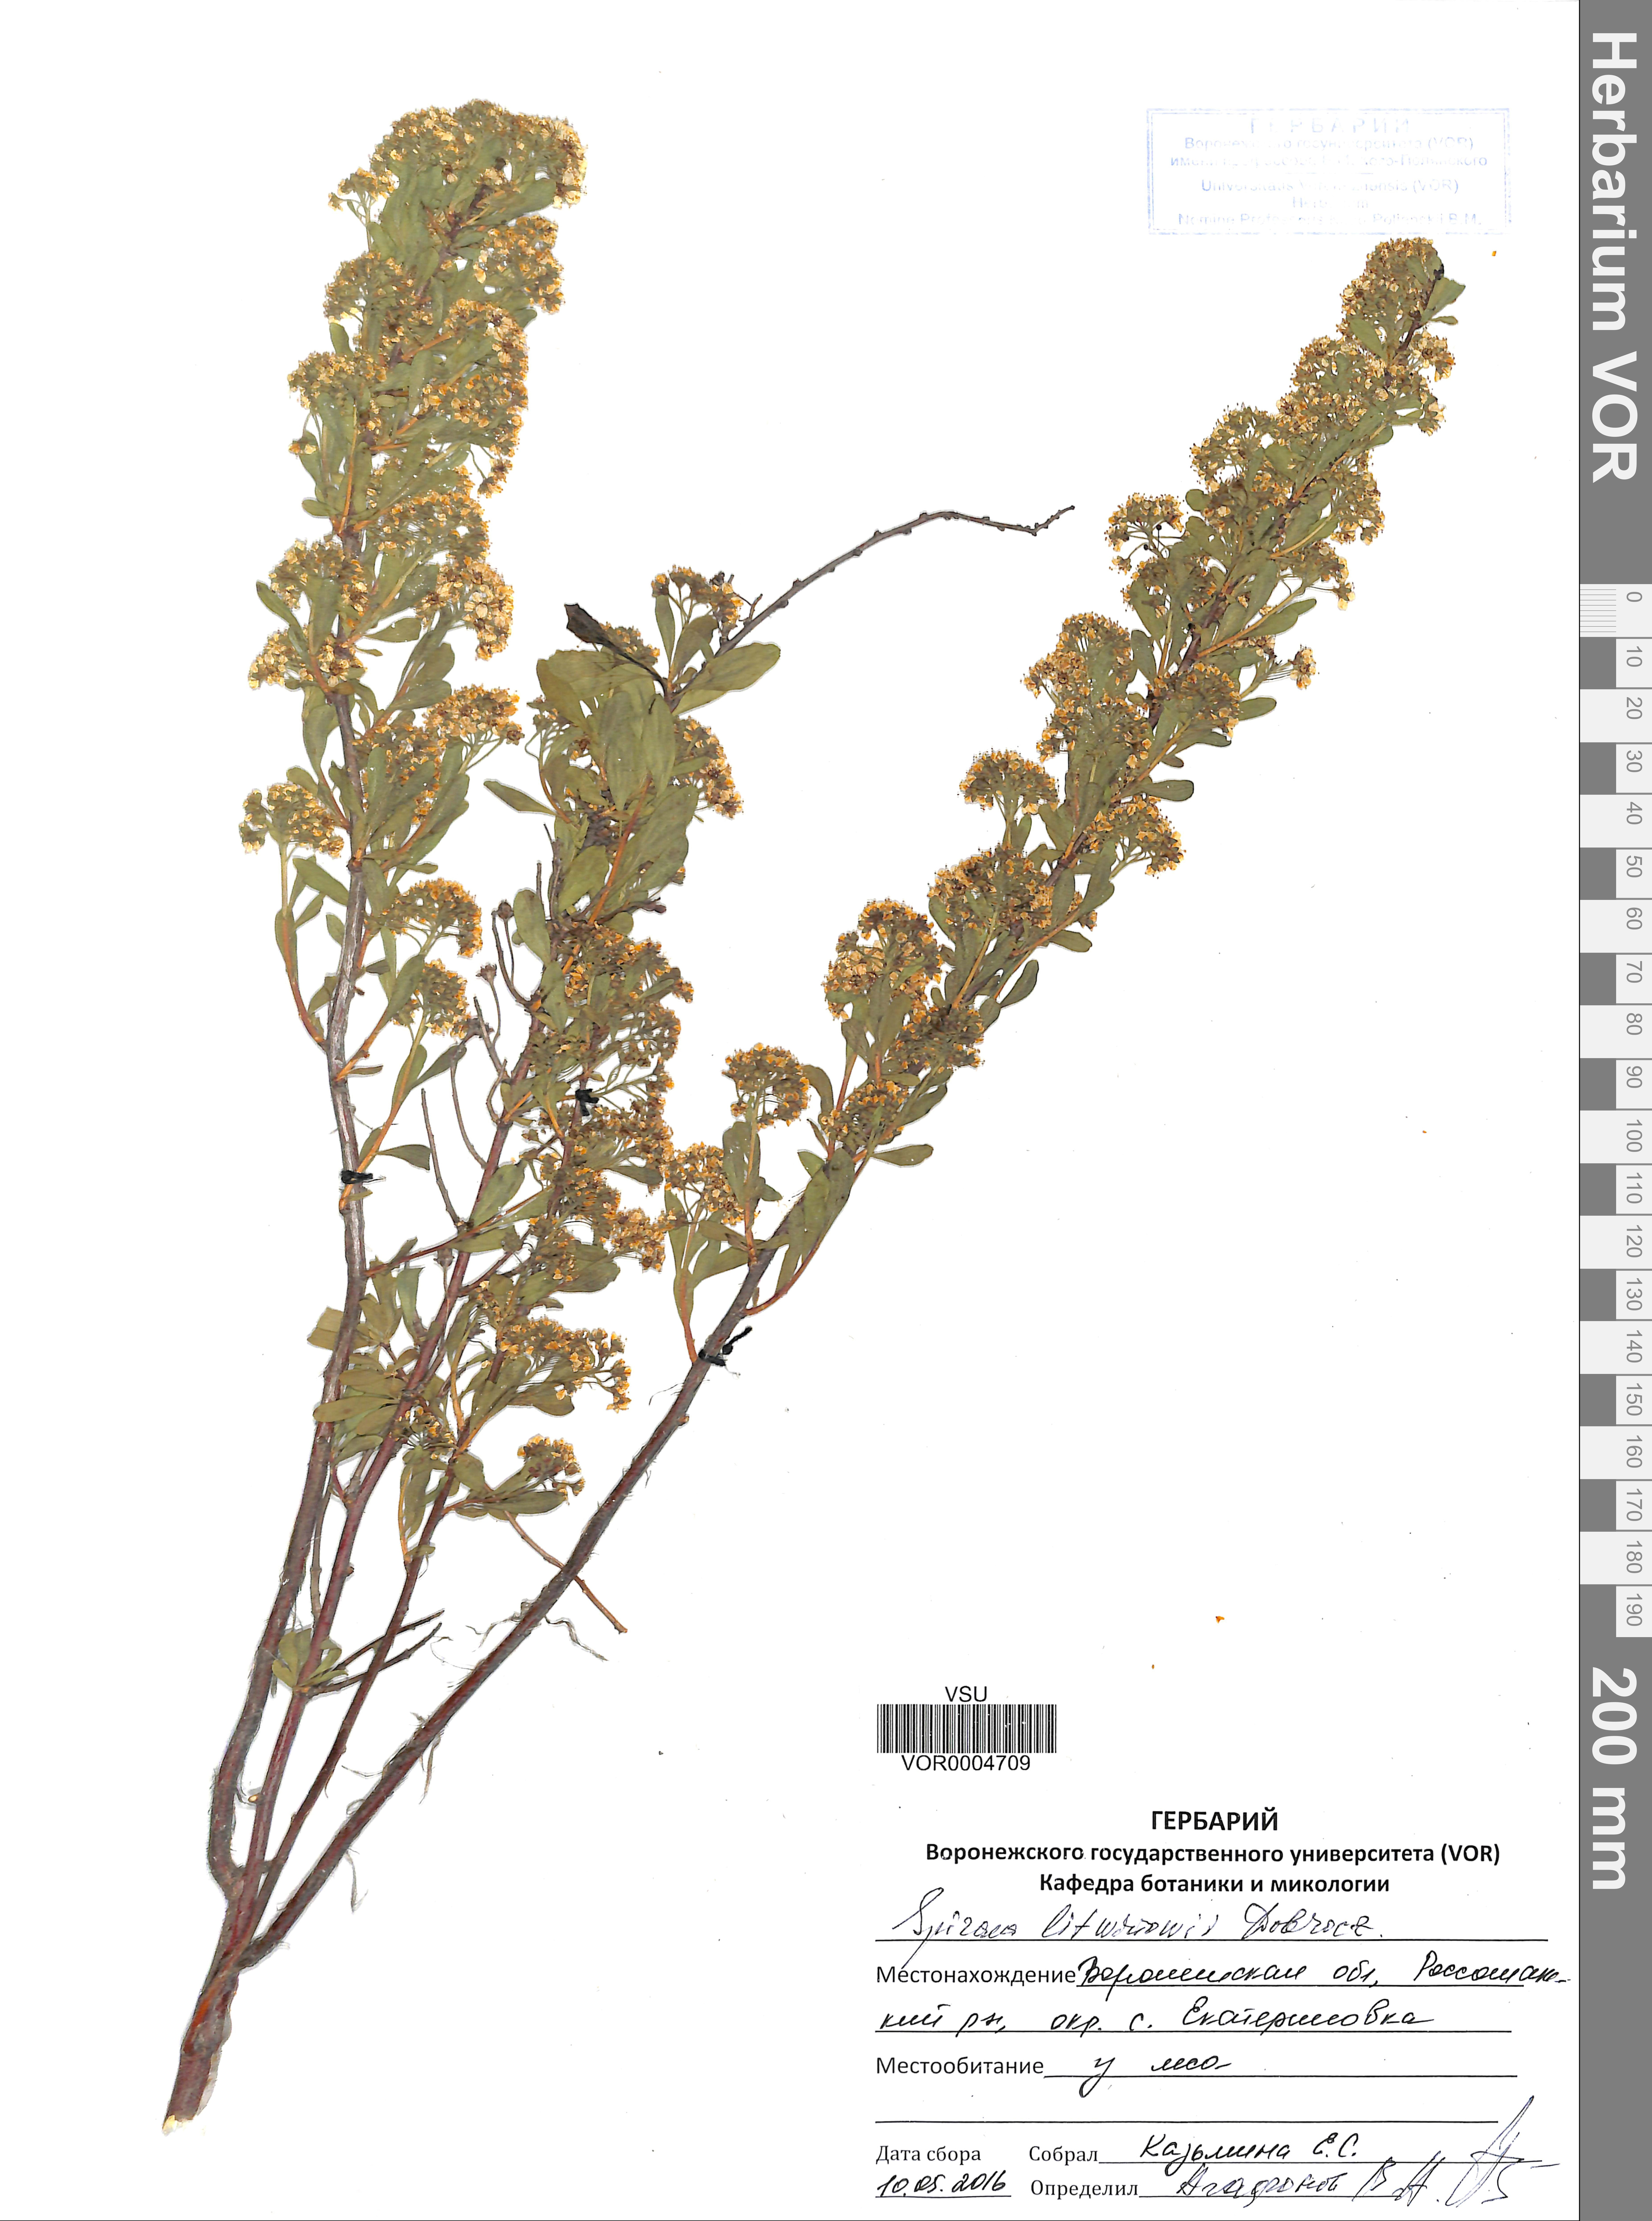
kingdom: Plantae
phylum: Tracheophyta
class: Magnoliopsida
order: Rosales
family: Rosaceae
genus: Spiraea
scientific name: Spiraea crenata
